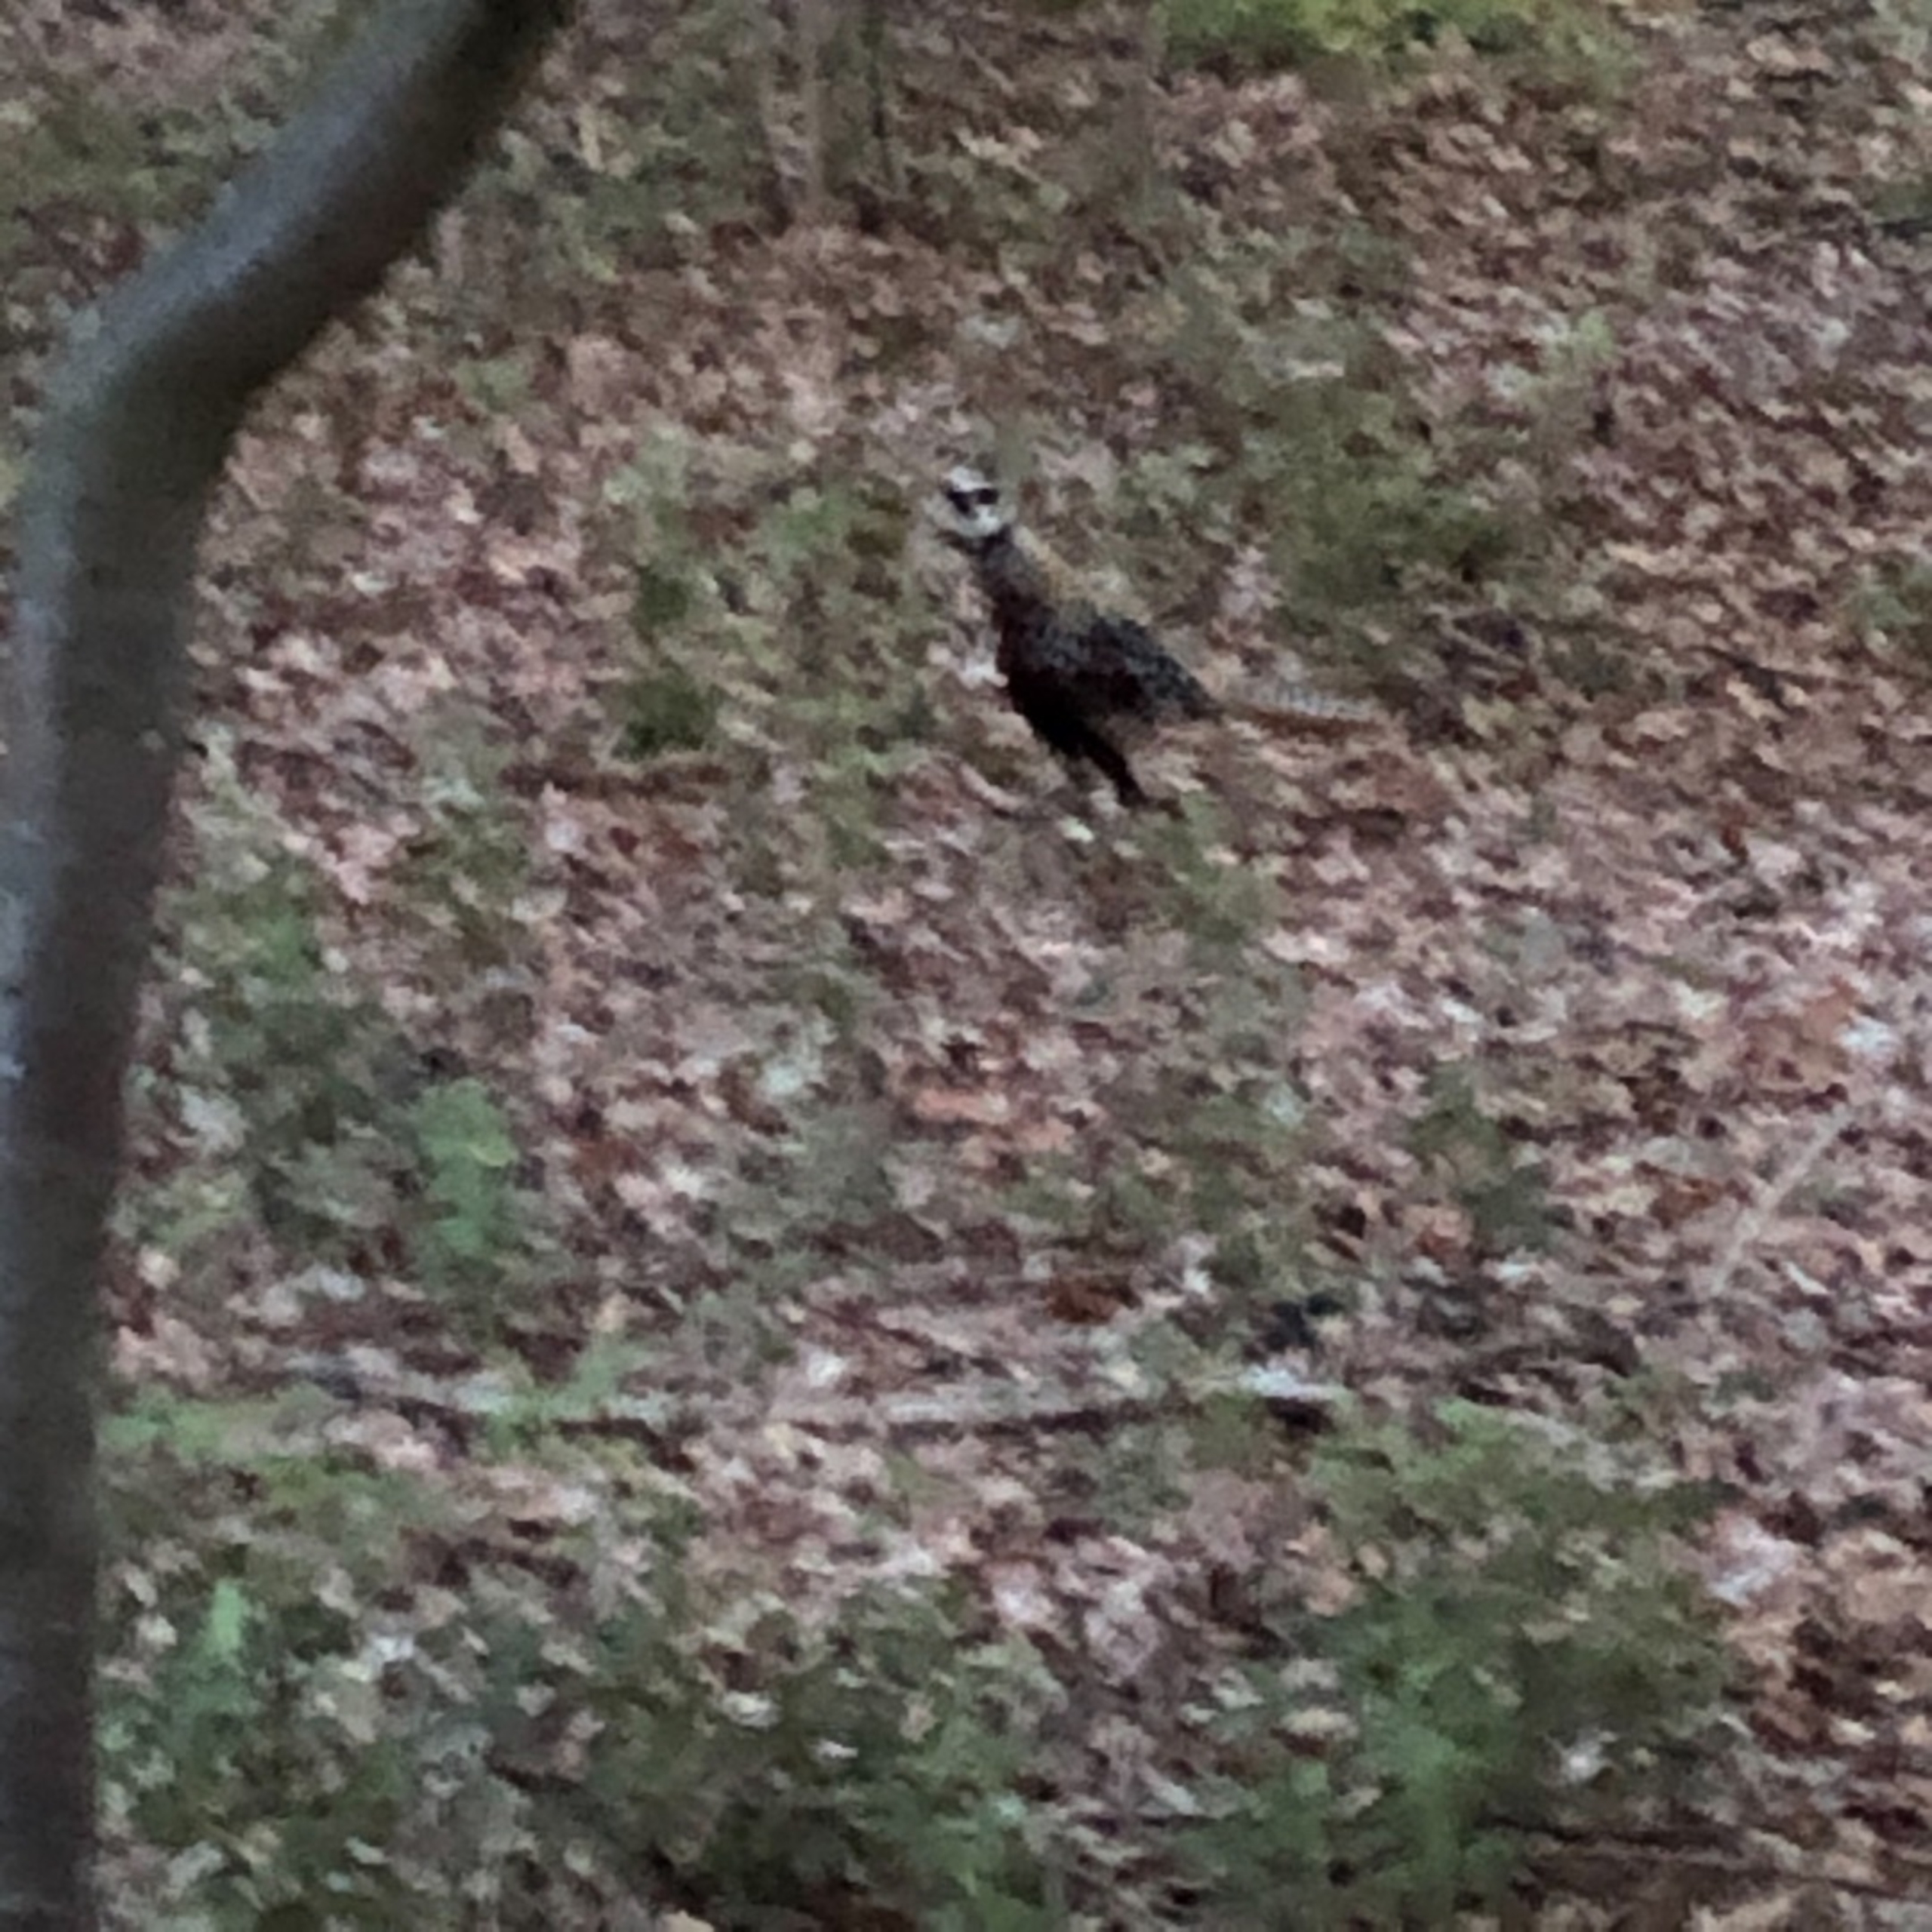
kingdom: Animalia
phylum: Chordata
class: Aves
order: Galliformes
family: Phasianidae
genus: Syrmaticus
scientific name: Syrmaticus reevesii
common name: Kongefasan
